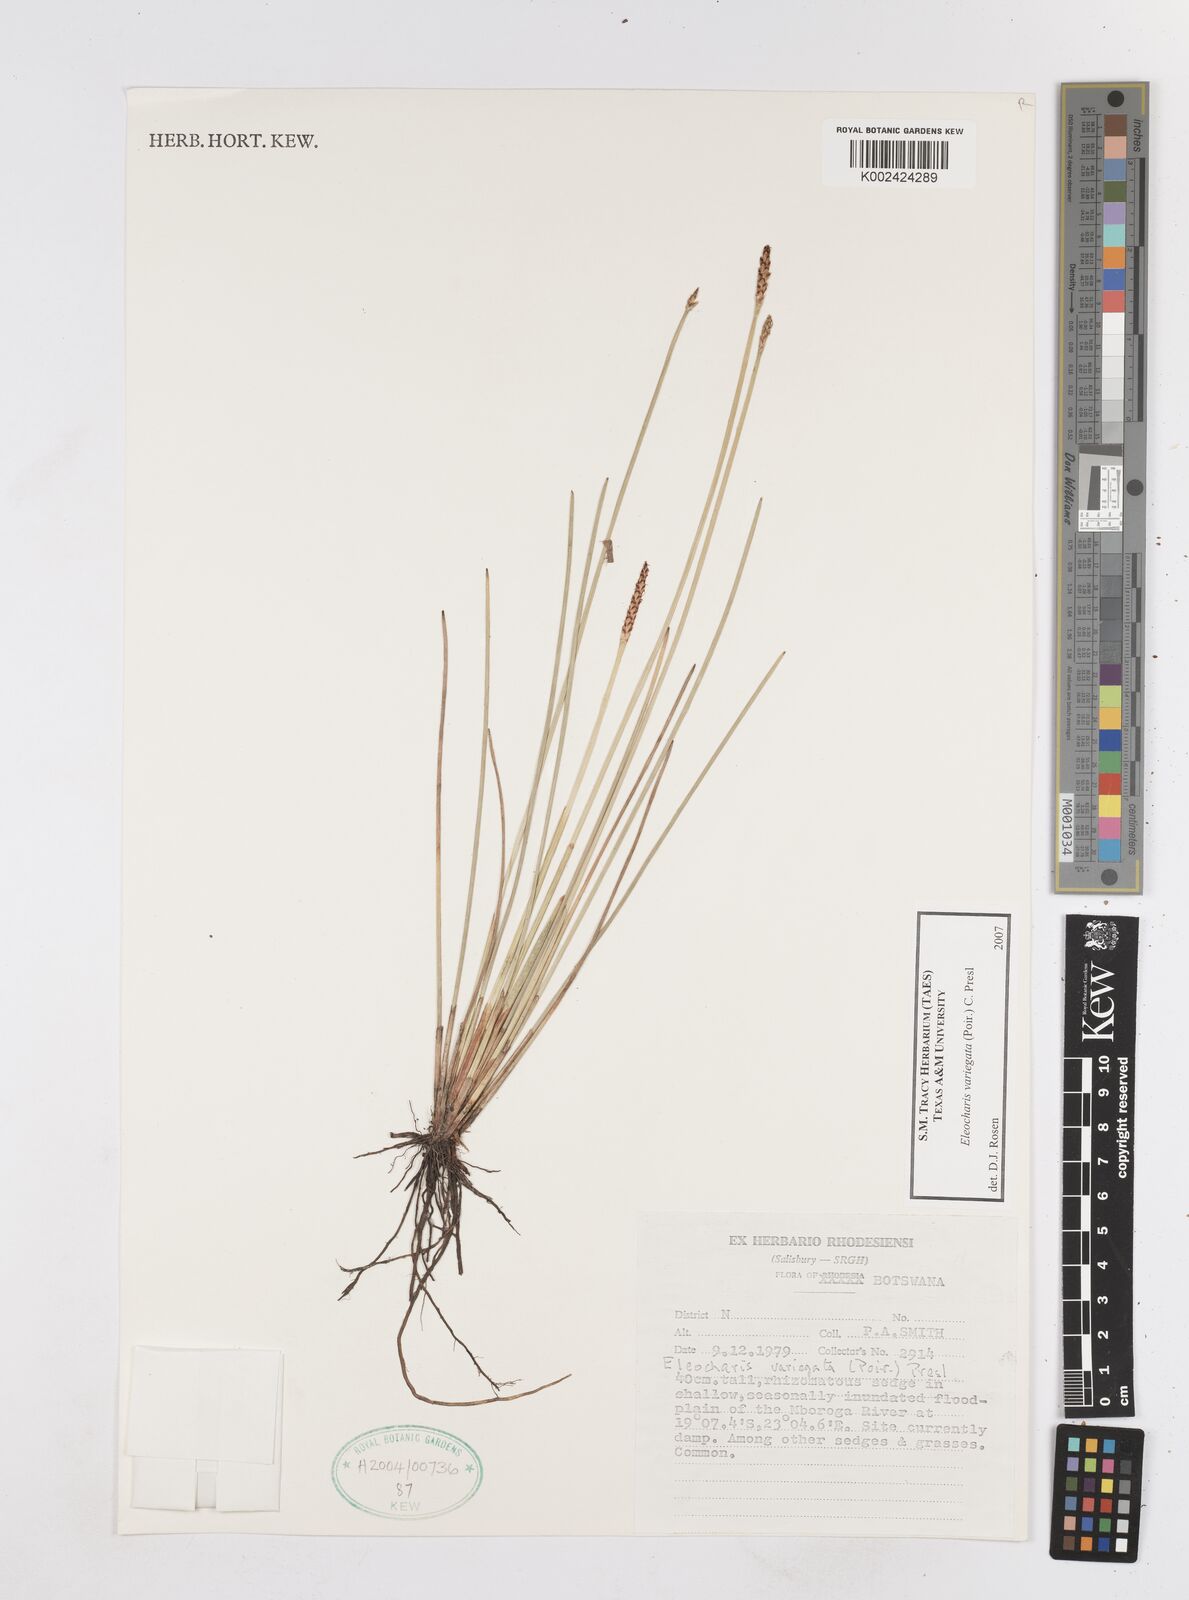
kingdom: Plantae
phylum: Tracheophyta
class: Liliopsida
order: Poales
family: Cyperaceae
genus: Eleocharis
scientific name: Eleocharis variegata
